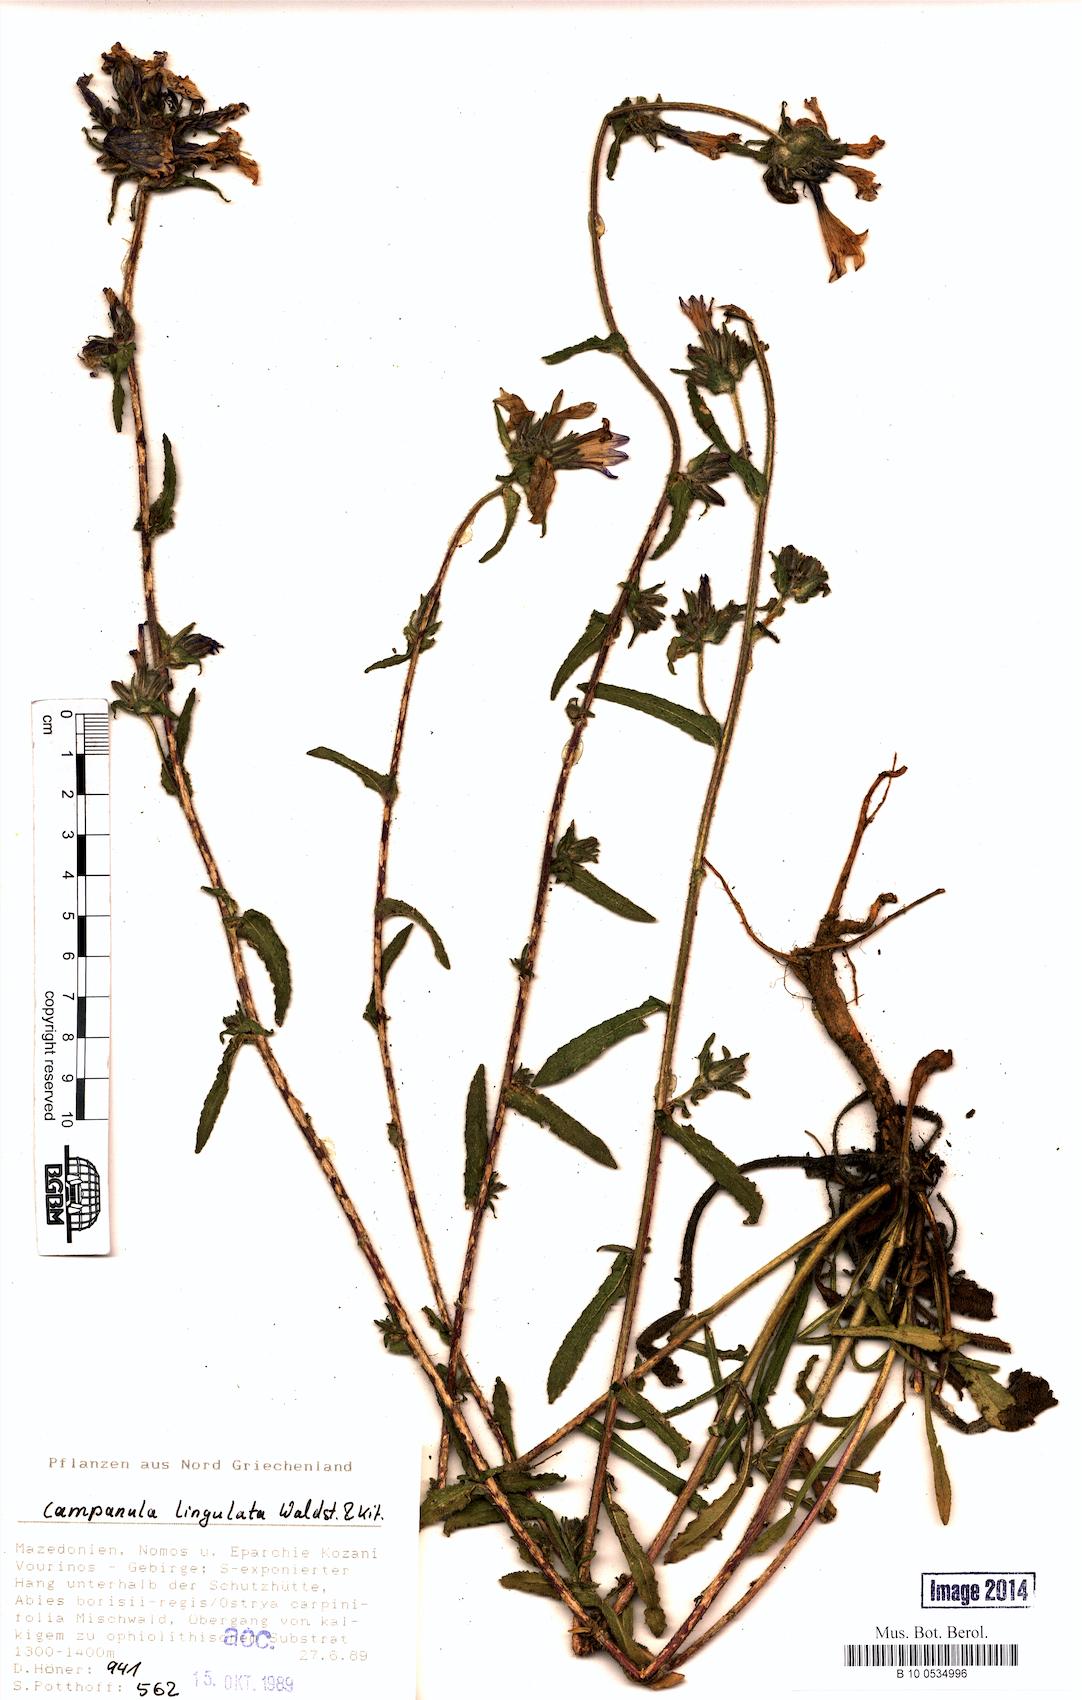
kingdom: Plantae
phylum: Tracheophyta
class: Magnoliopsida
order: Asterales
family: Campanulaceae
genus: Campanula
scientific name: Campanula lingulata
